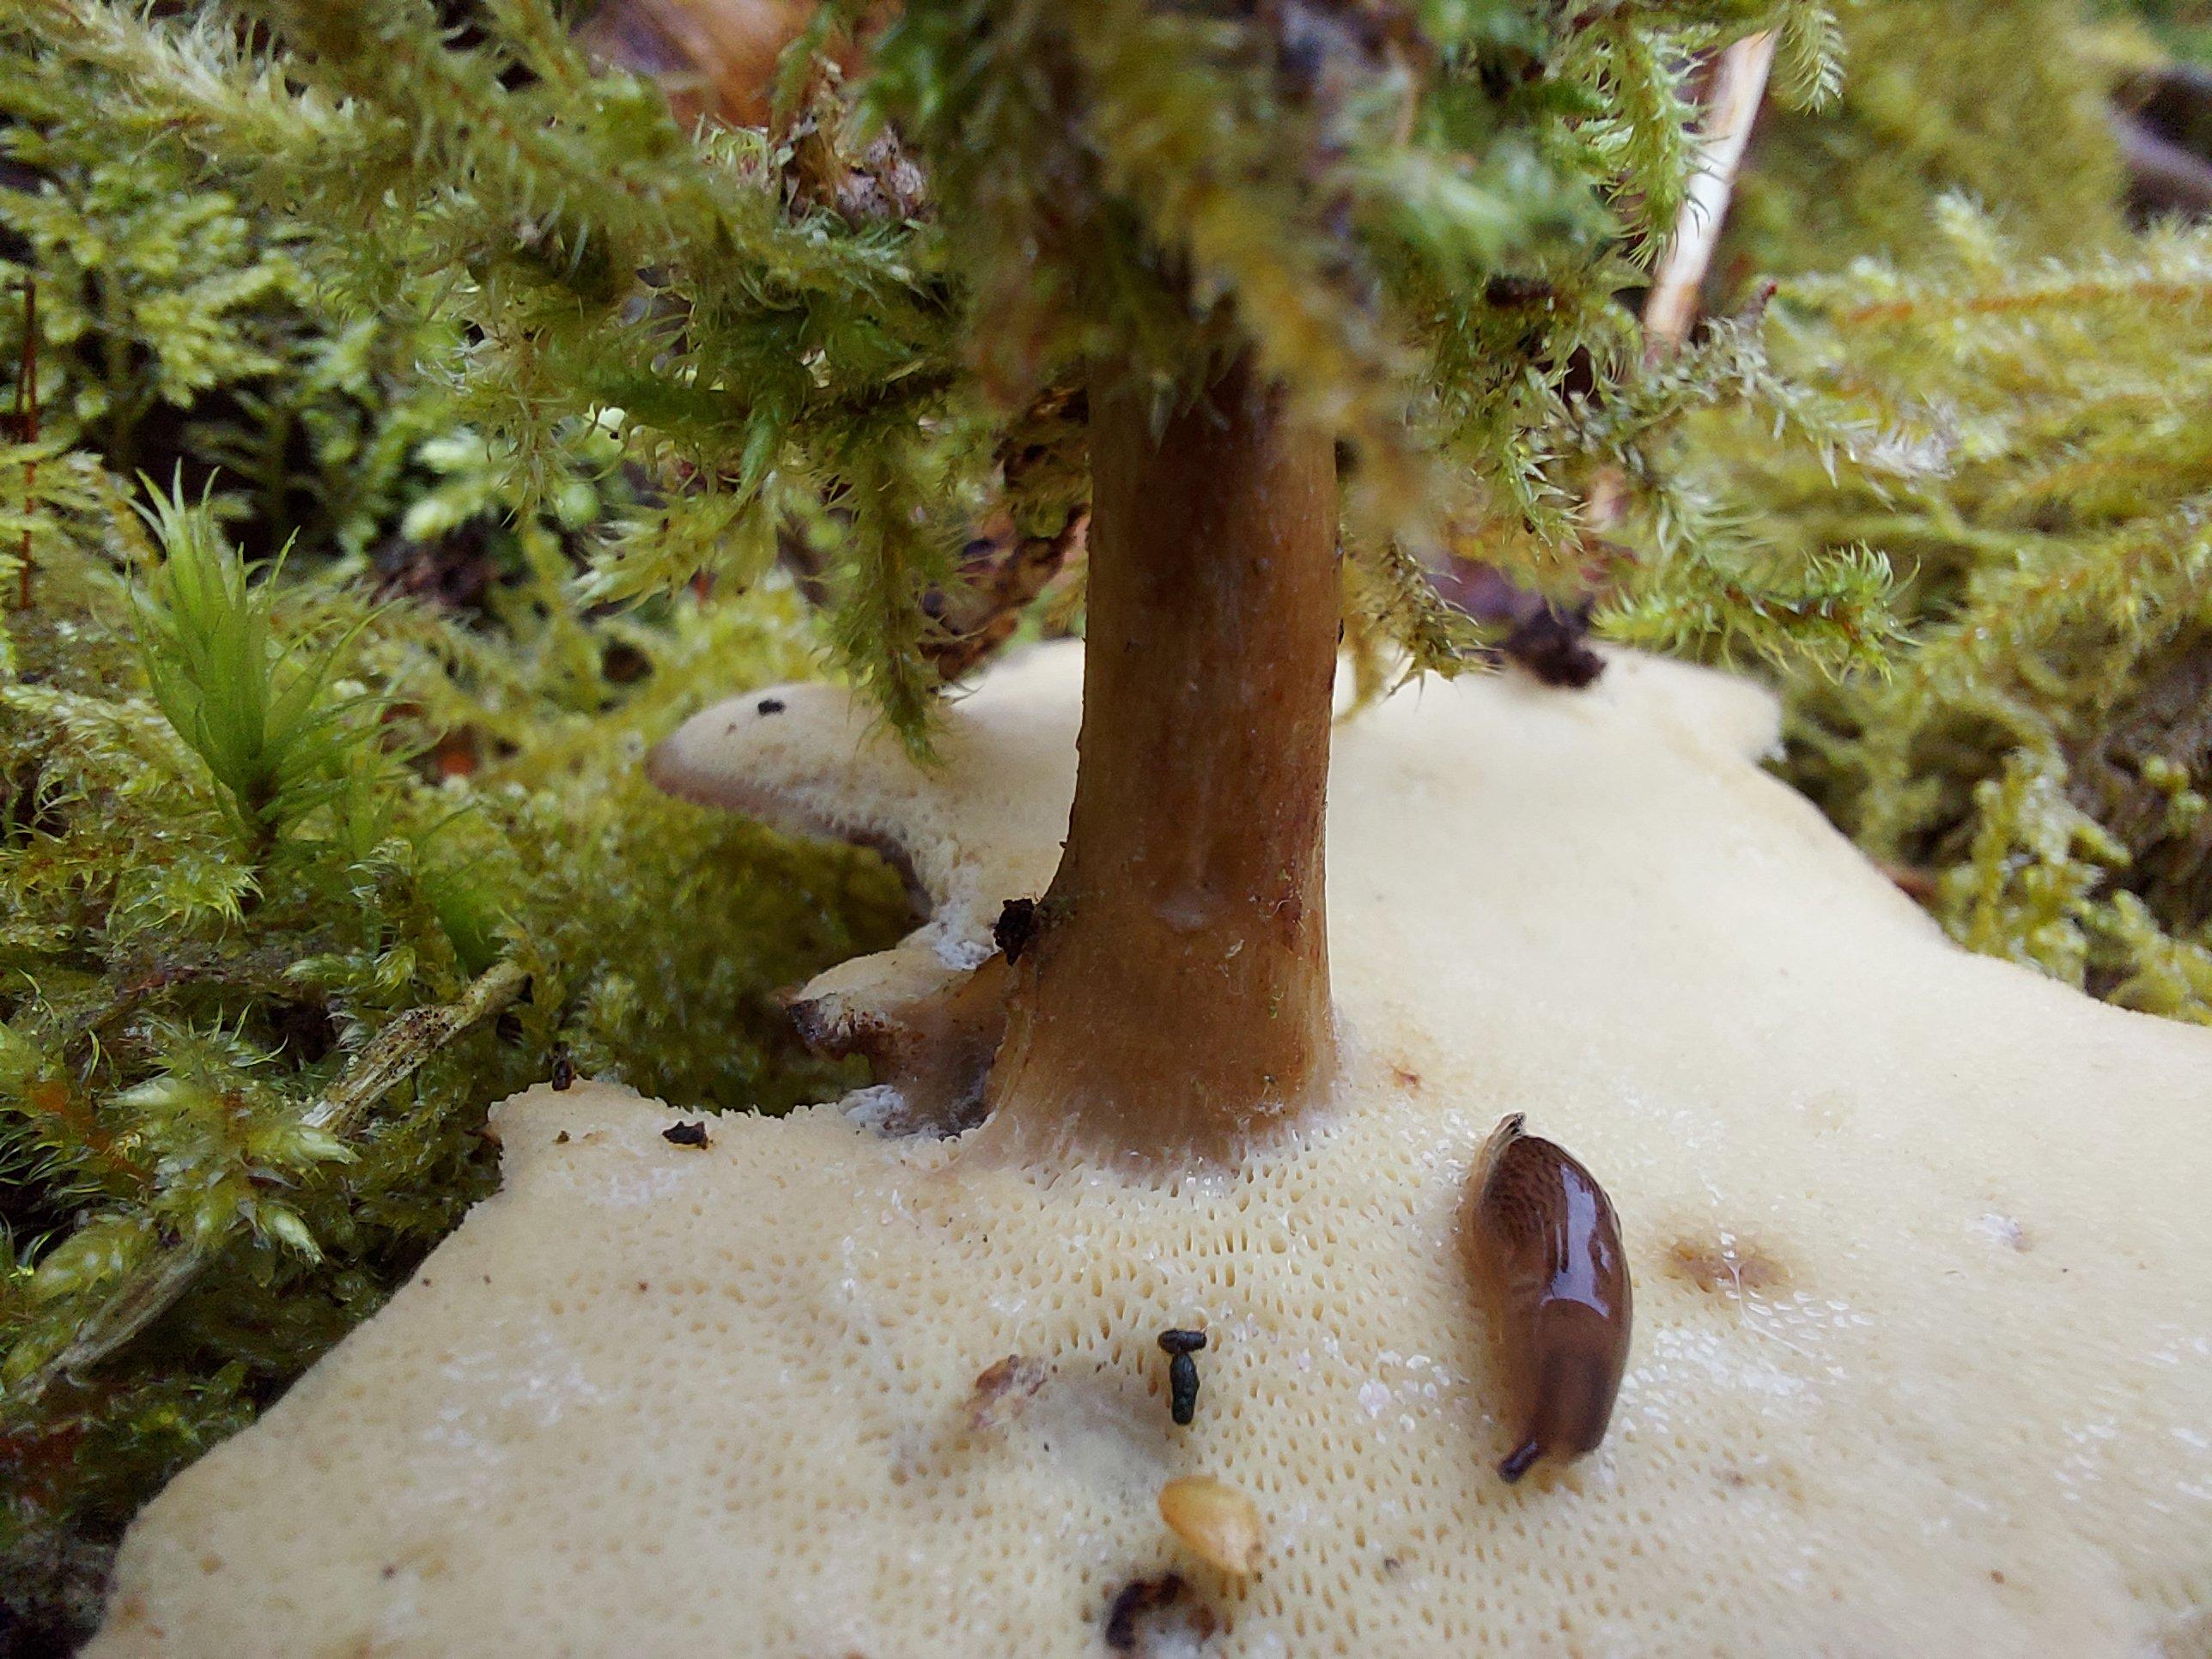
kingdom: Fungi
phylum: Basidiomycota
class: Agaricomycetes
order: Polyporales
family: Polyporaceae
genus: Lentinus
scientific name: Lentinus brumalis
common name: vinter-stilkporesvamp
